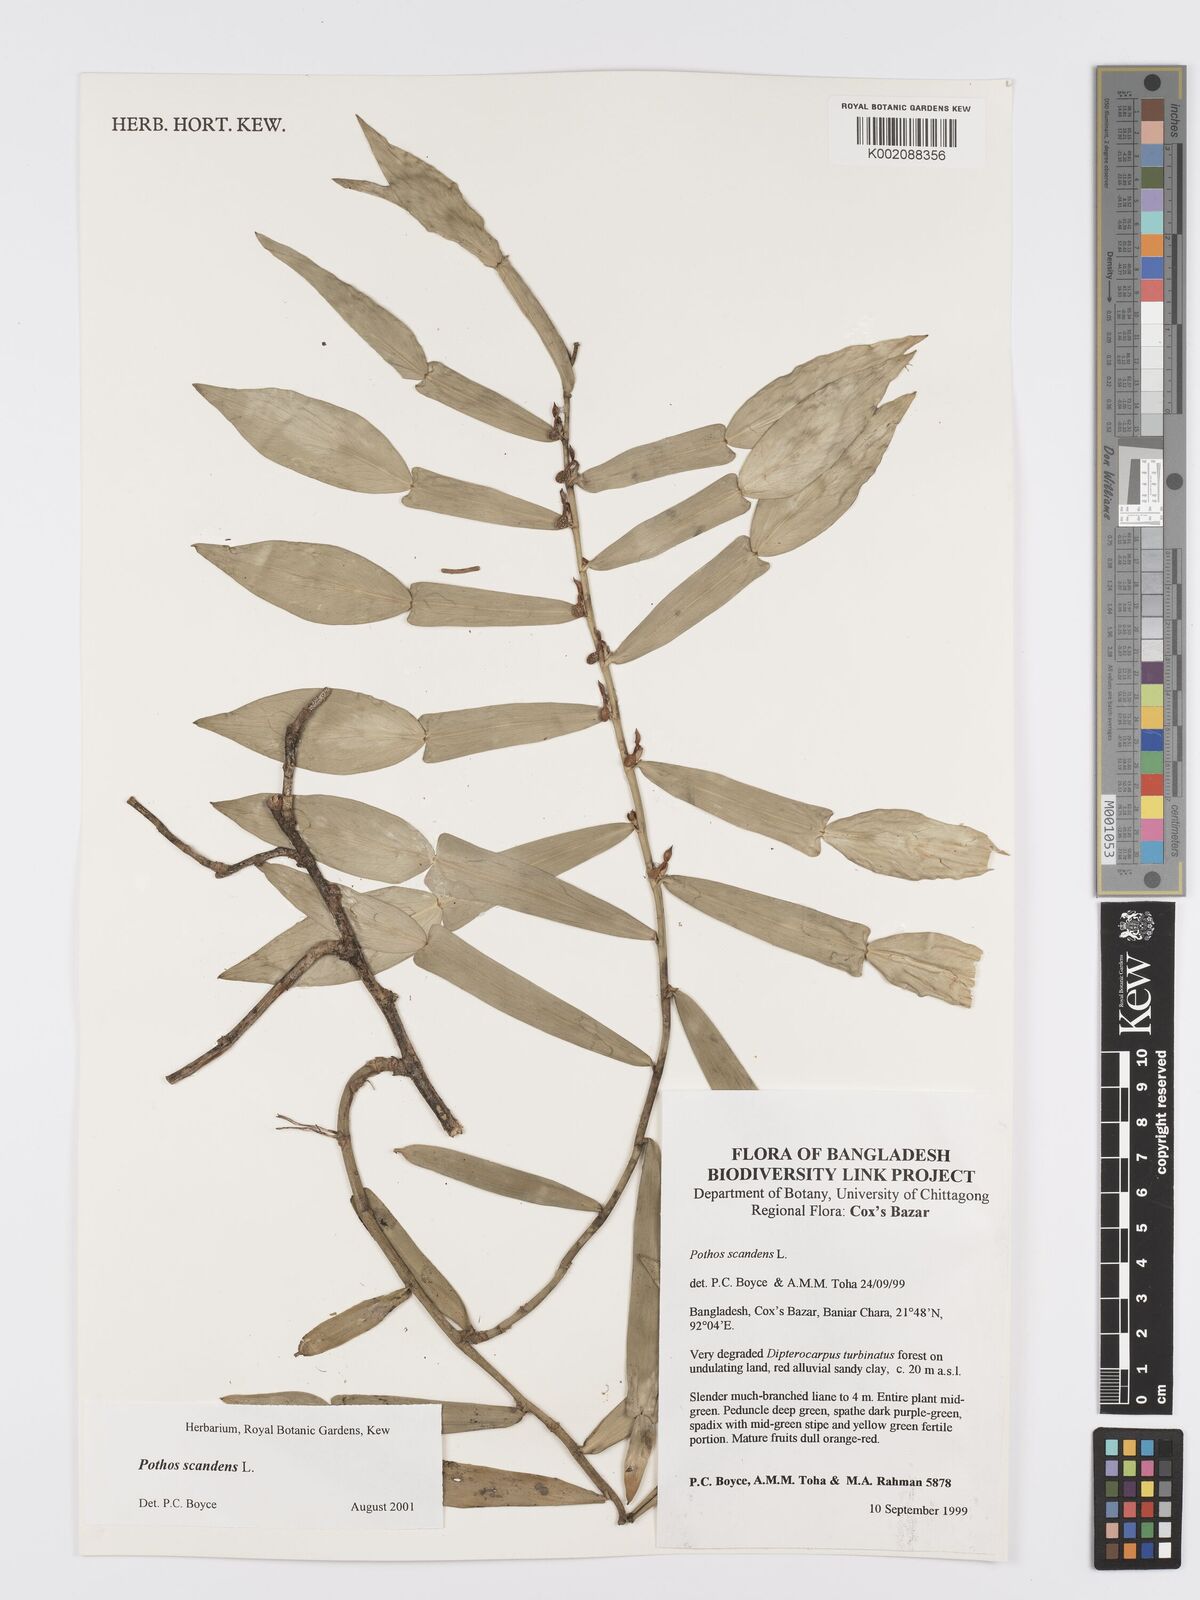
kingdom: Plantae
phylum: Tracheophyta
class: Liliopsida
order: Alismatales
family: Araceae
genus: Pothos
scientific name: Pothos scandens
